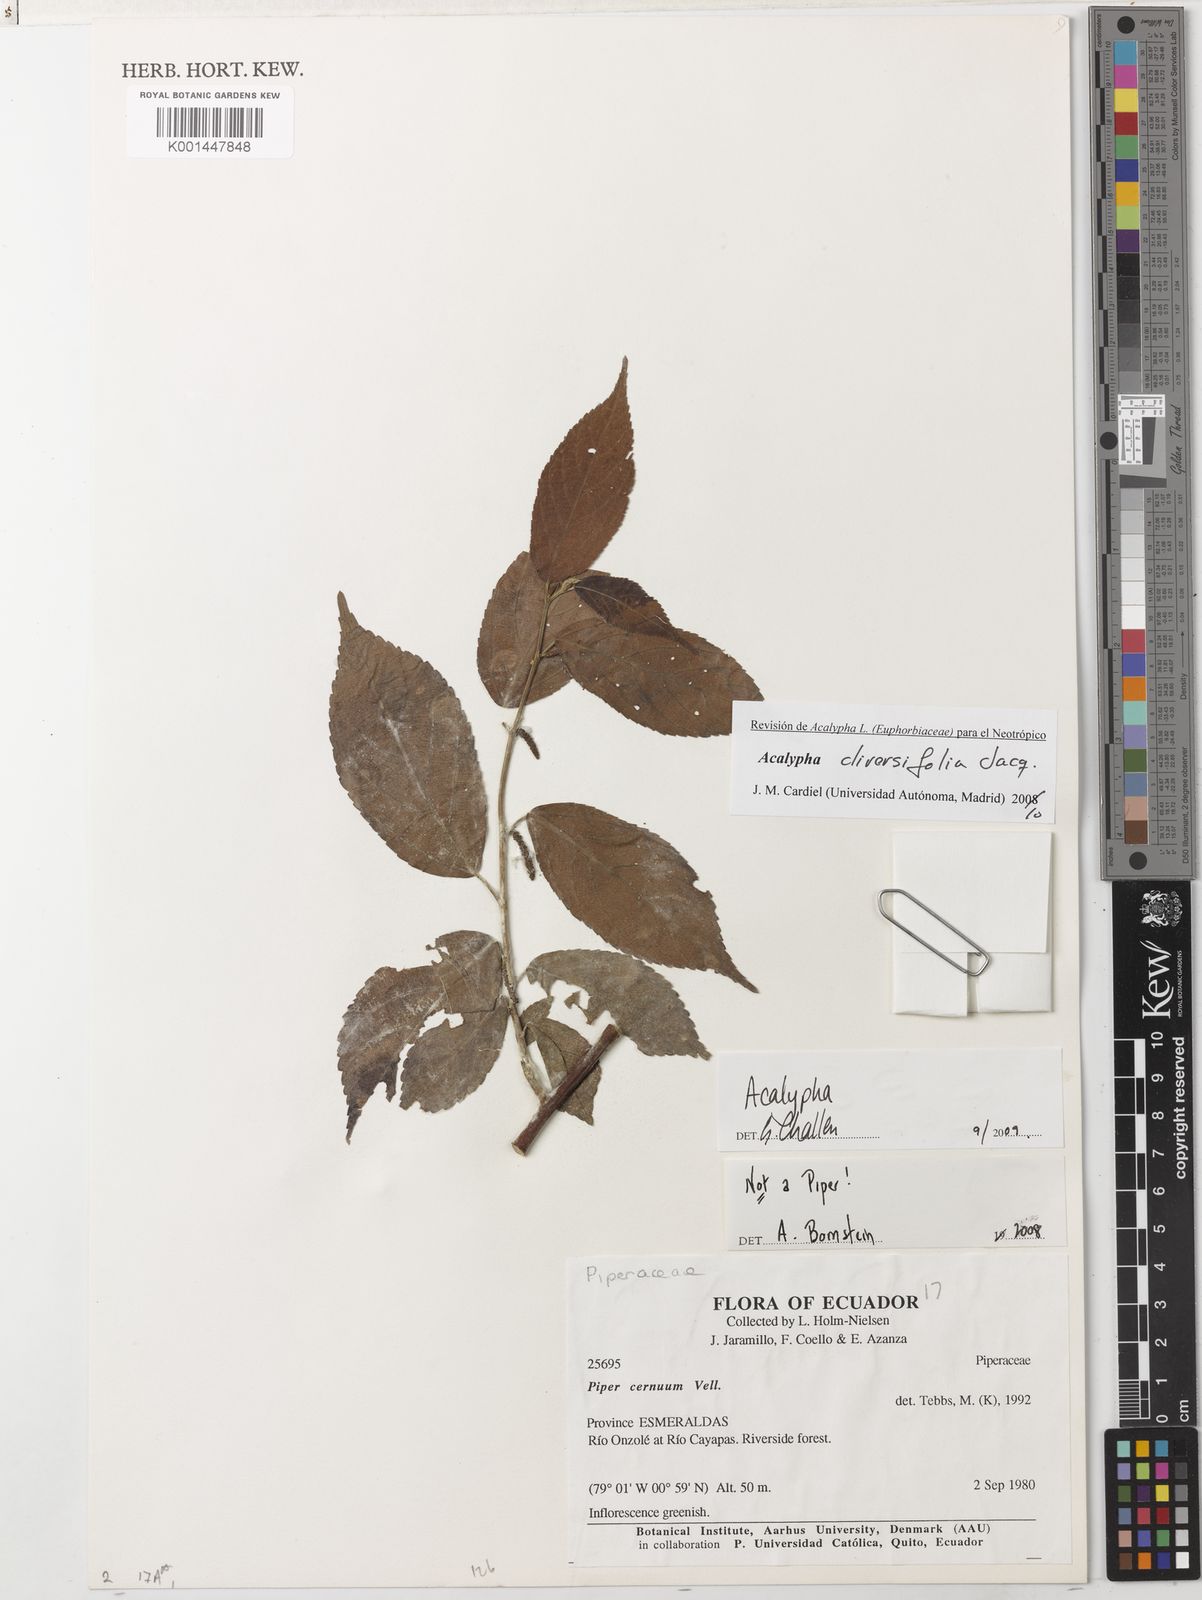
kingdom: Plantae
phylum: Tracheophyta
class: Magnoliopsida
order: Malpighiales
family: Euphorbiaceae
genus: Acalypha
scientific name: Acalypha diversifolia
